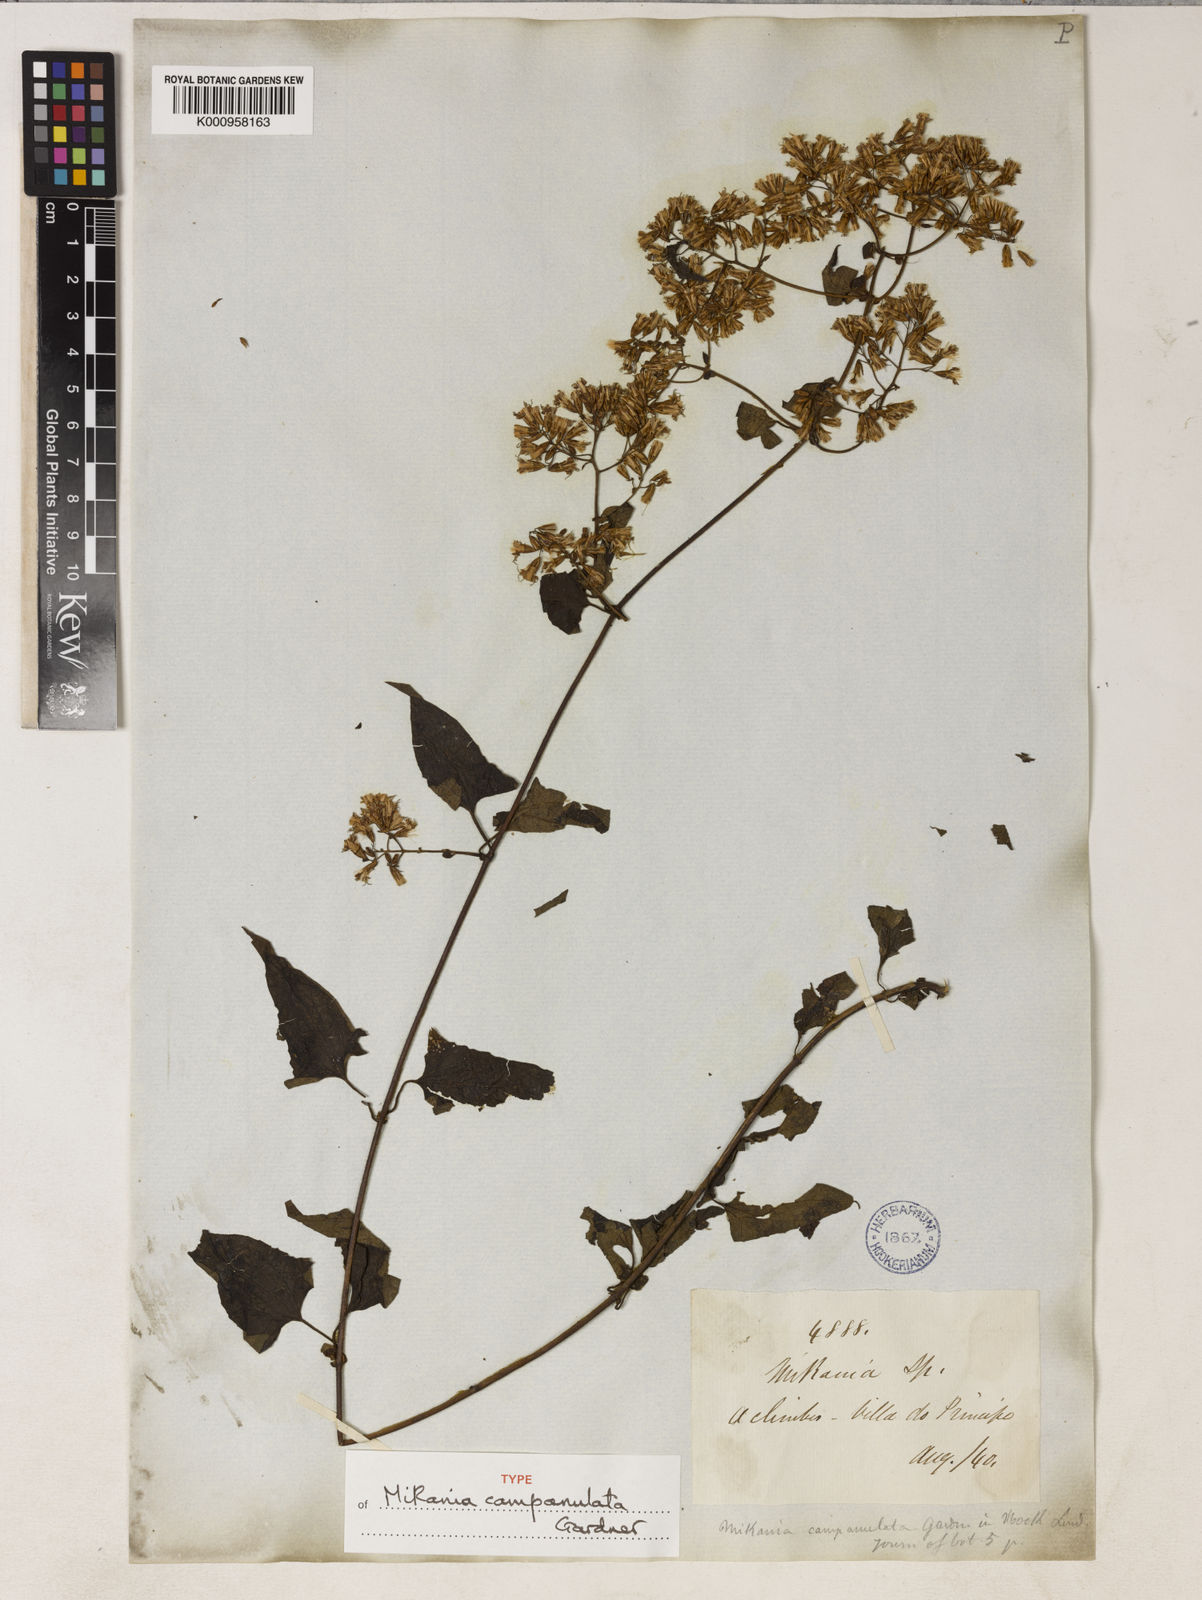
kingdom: Plantae
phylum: Tracheophyta
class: Magnoliopsida
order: Asterales
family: Asteraceae
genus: Mikania
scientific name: Mikania campanulata
